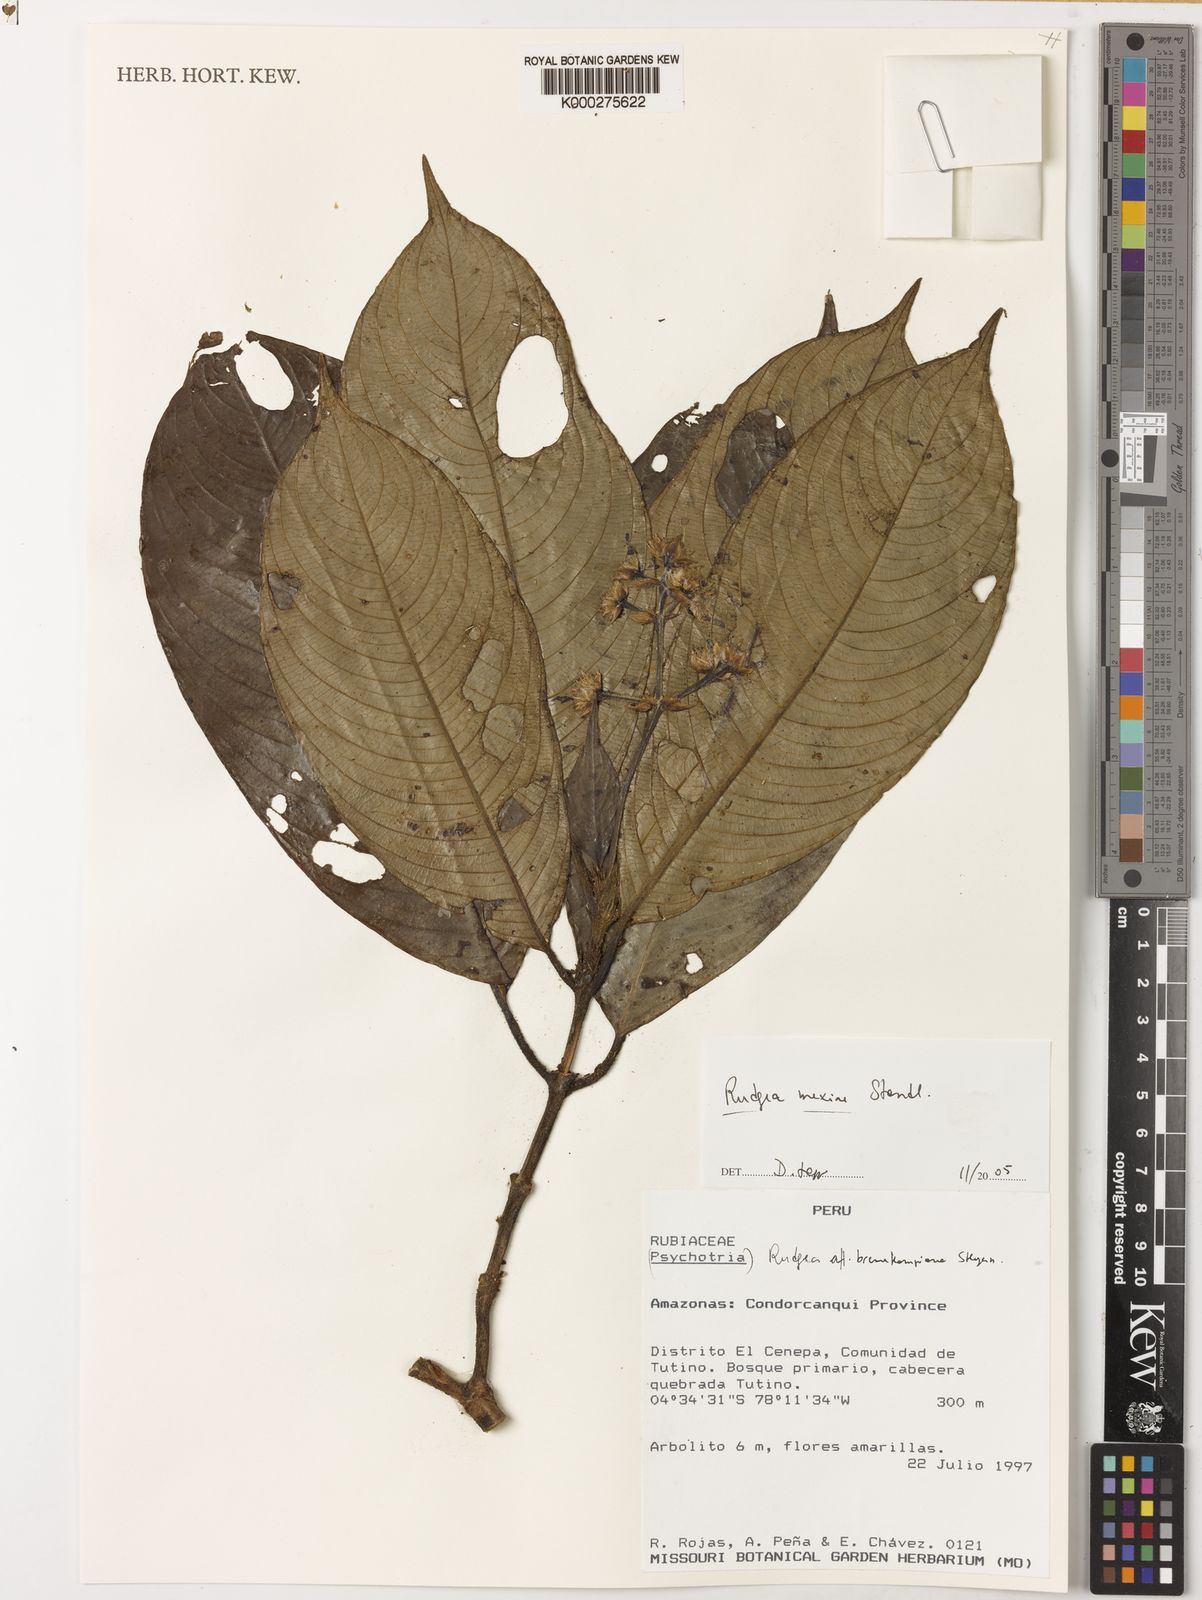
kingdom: Plantae
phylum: Tracheophyta
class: Magnoliopsida
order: Gentianales
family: Rubiaceae
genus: Palicourea
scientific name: Palicourea yneziae
